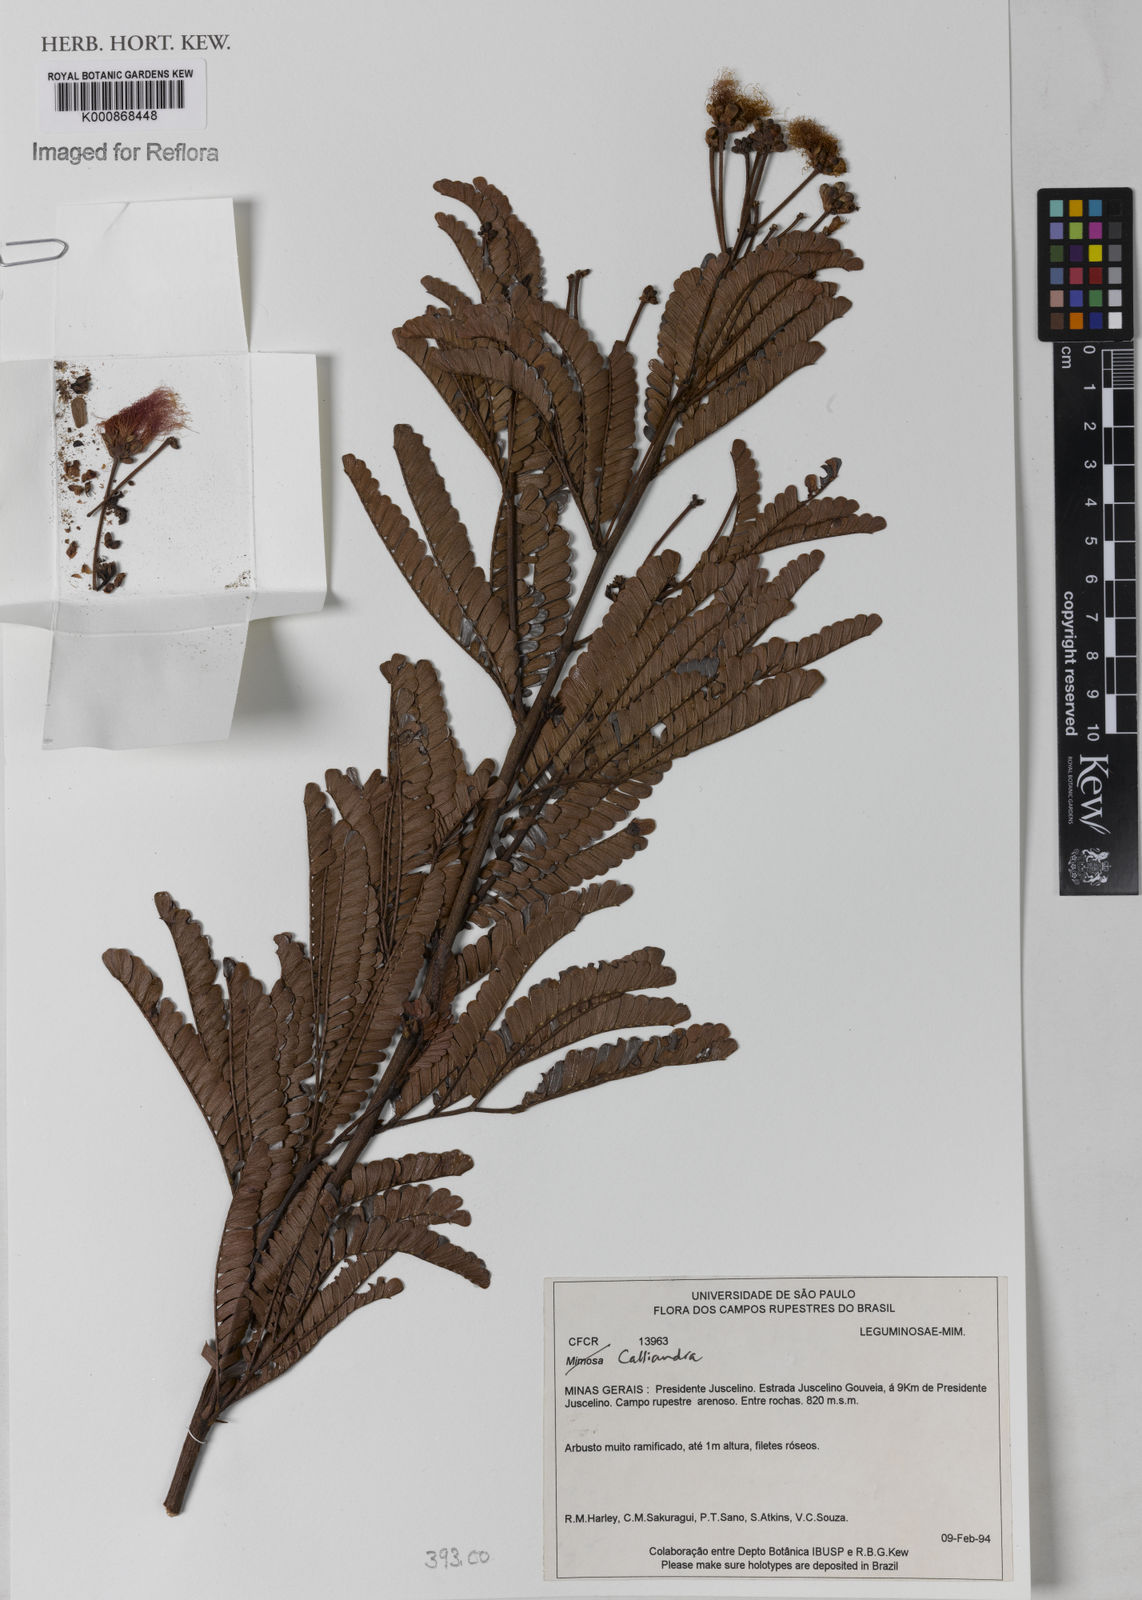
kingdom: Plantae
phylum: Tracheophyta
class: Magnoliopsida
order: Fabales
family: Fabaceae
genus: Calliandra
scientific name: Calliandra
